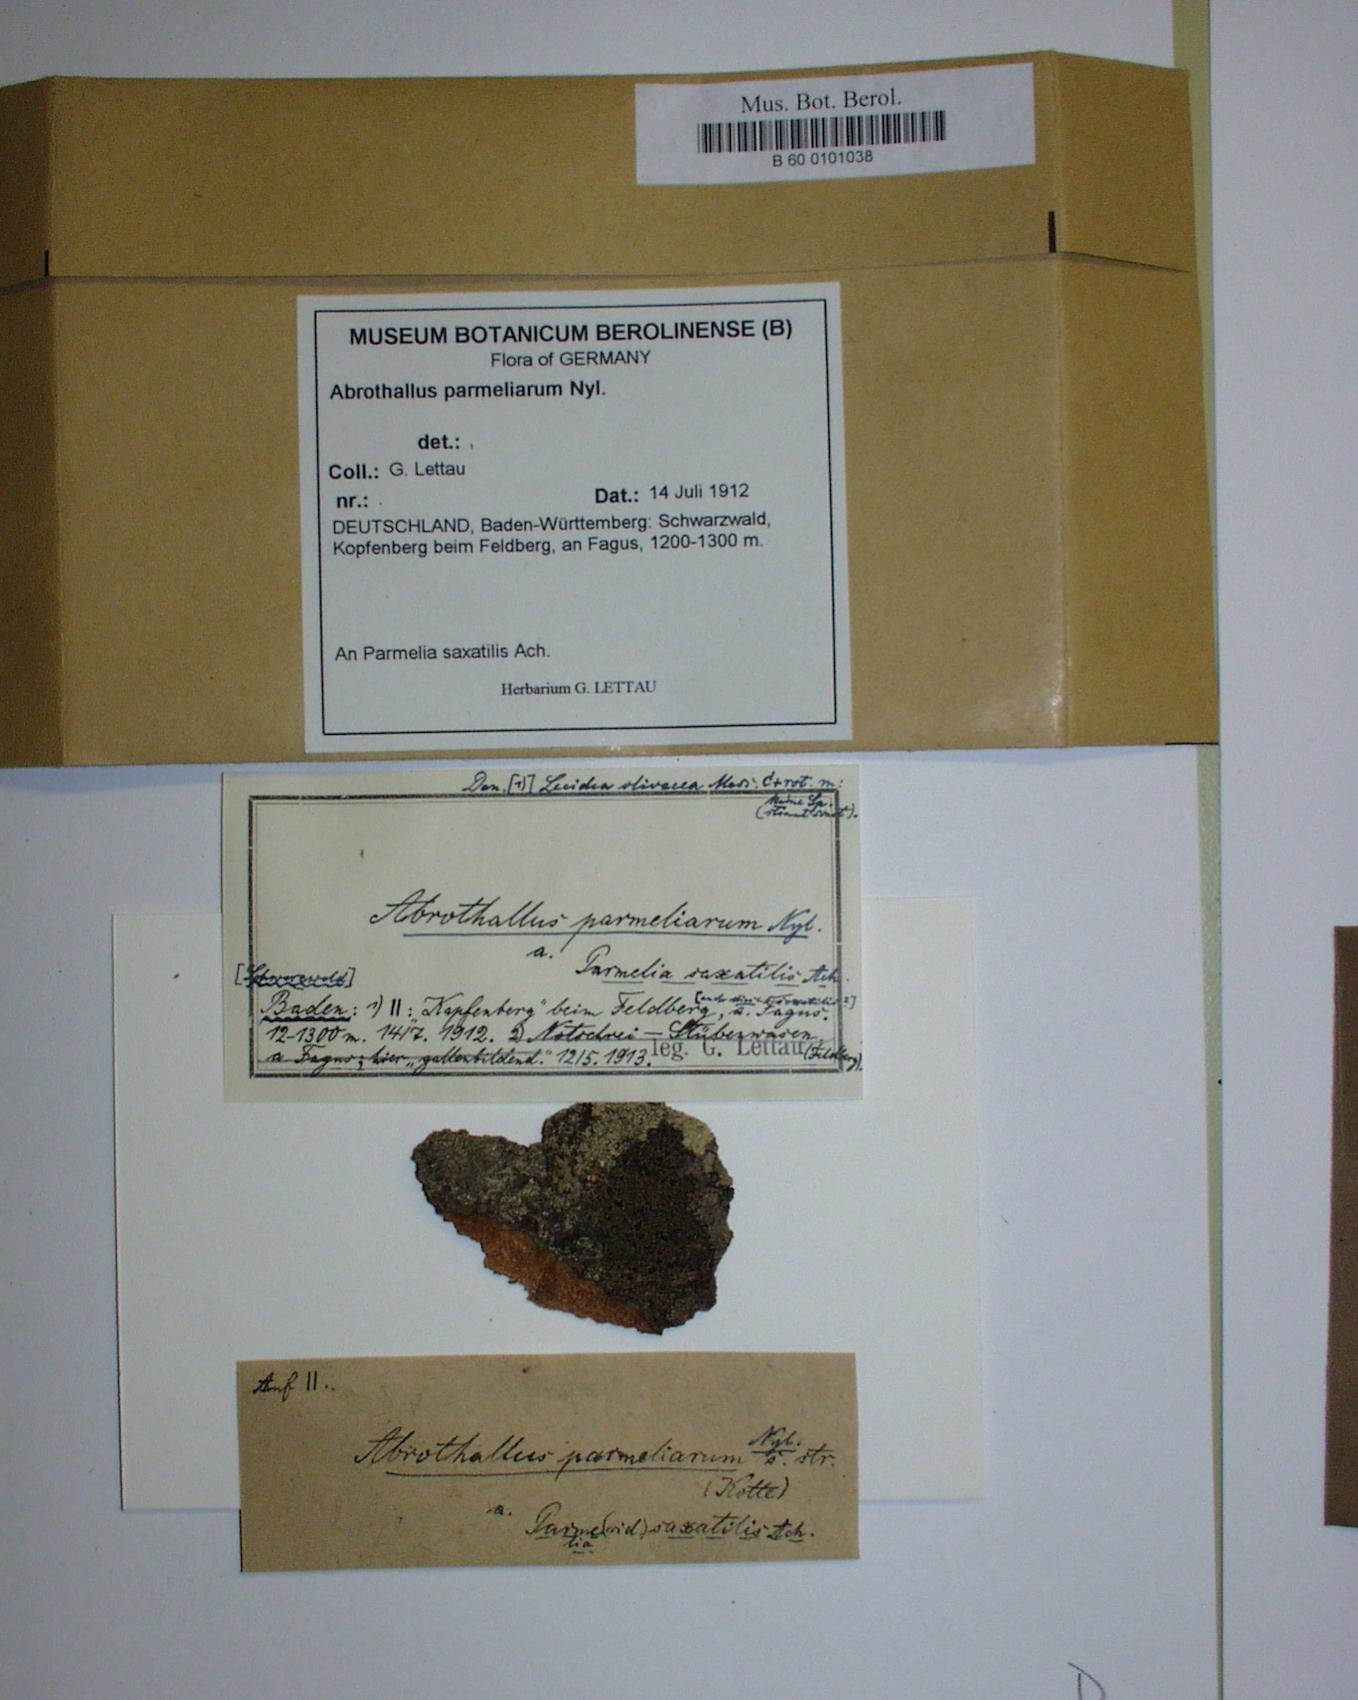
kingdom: Fungi
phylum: Ascomycota
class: Dothideomycetes
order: Abrothallales
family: Abrothallaceae
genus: Abrothallus
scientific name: Abrothallus parmeliarum
